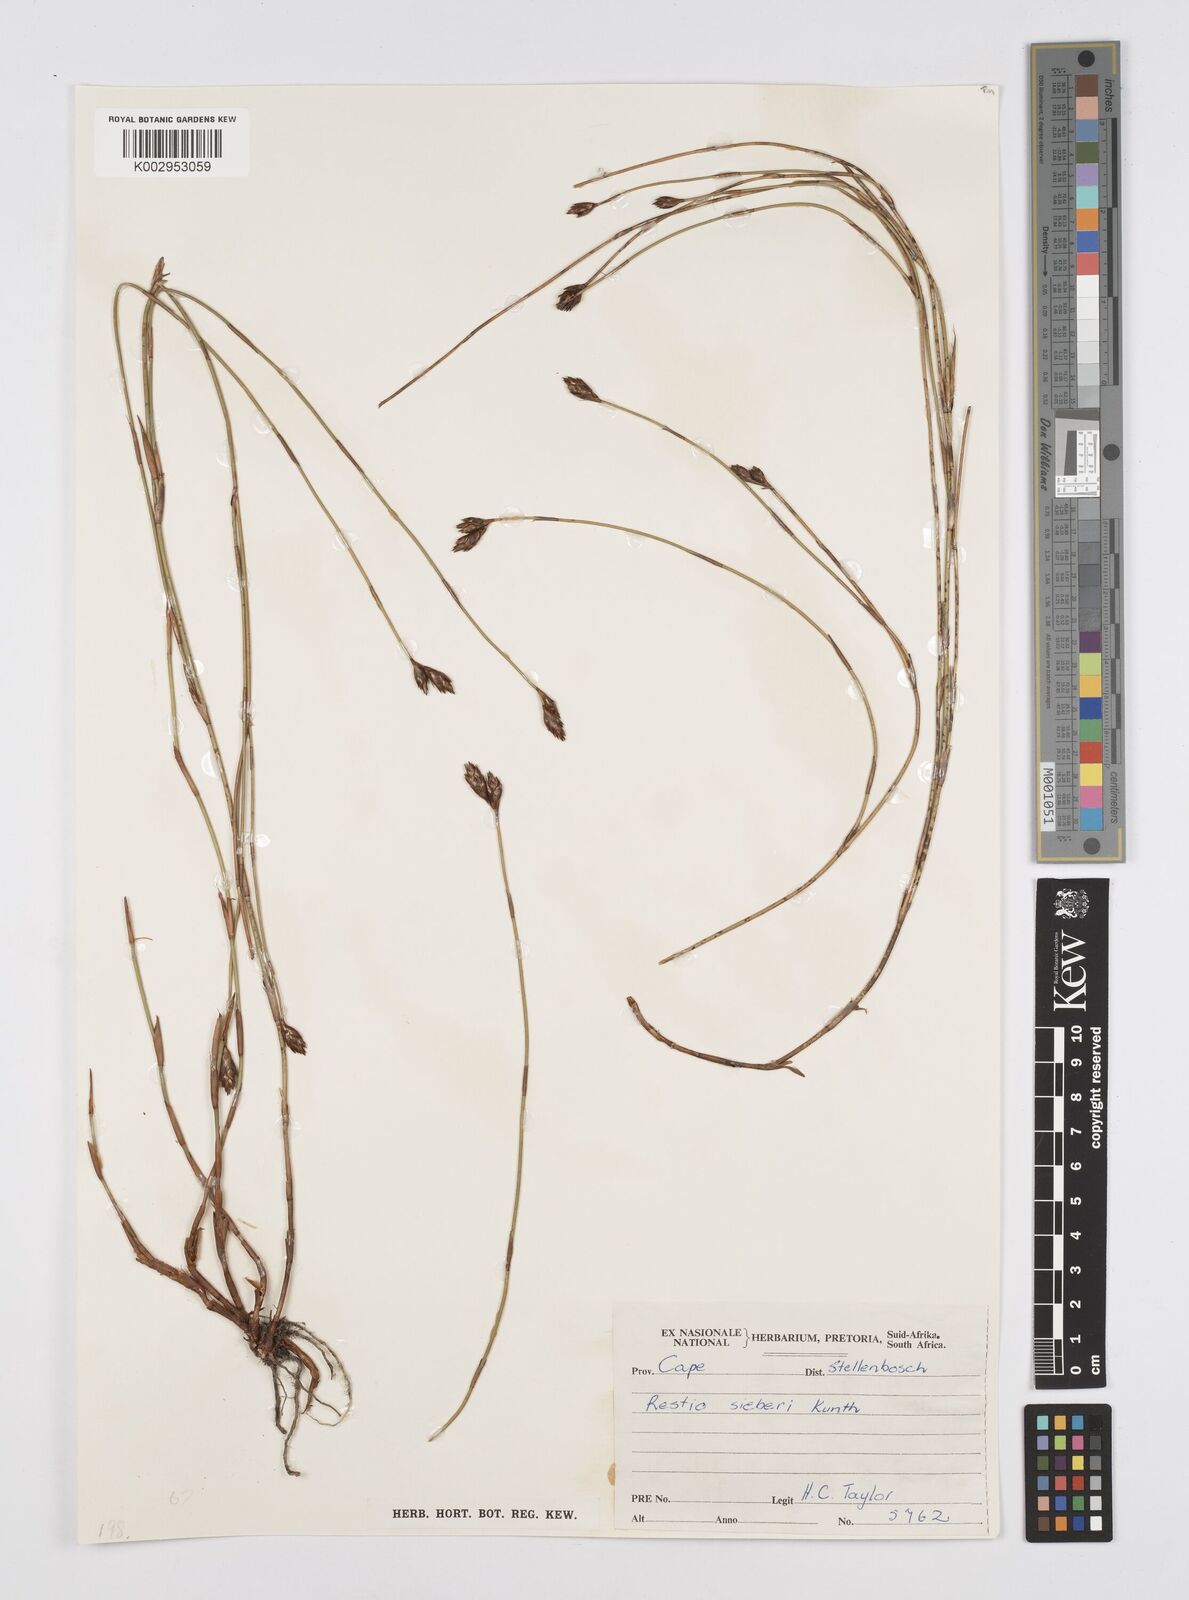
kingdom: Plantae
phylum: Tracheophyta
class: Liliopsida
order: Poales
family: Restionaceae
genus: Restio
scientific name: Restio sieberi
